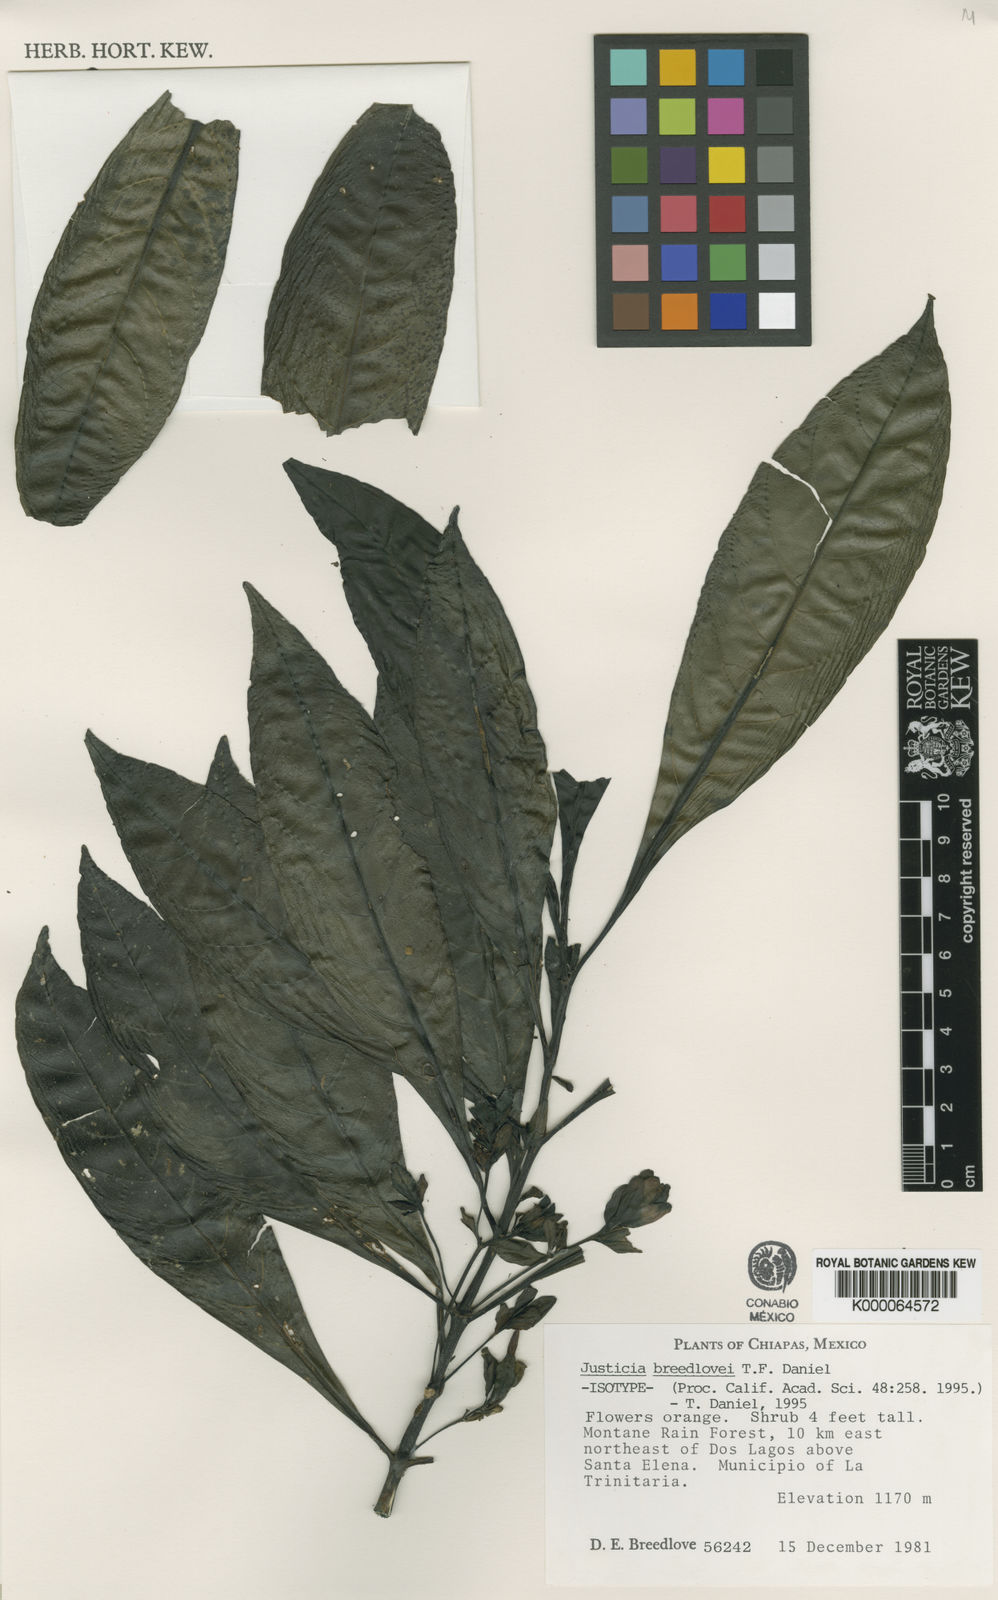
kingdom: Plantae
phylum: Tracheophyta
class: Magnoliopsida
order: Lamiales
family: Acanthaceae
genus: Justicia
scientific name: Justicia breedlovei
